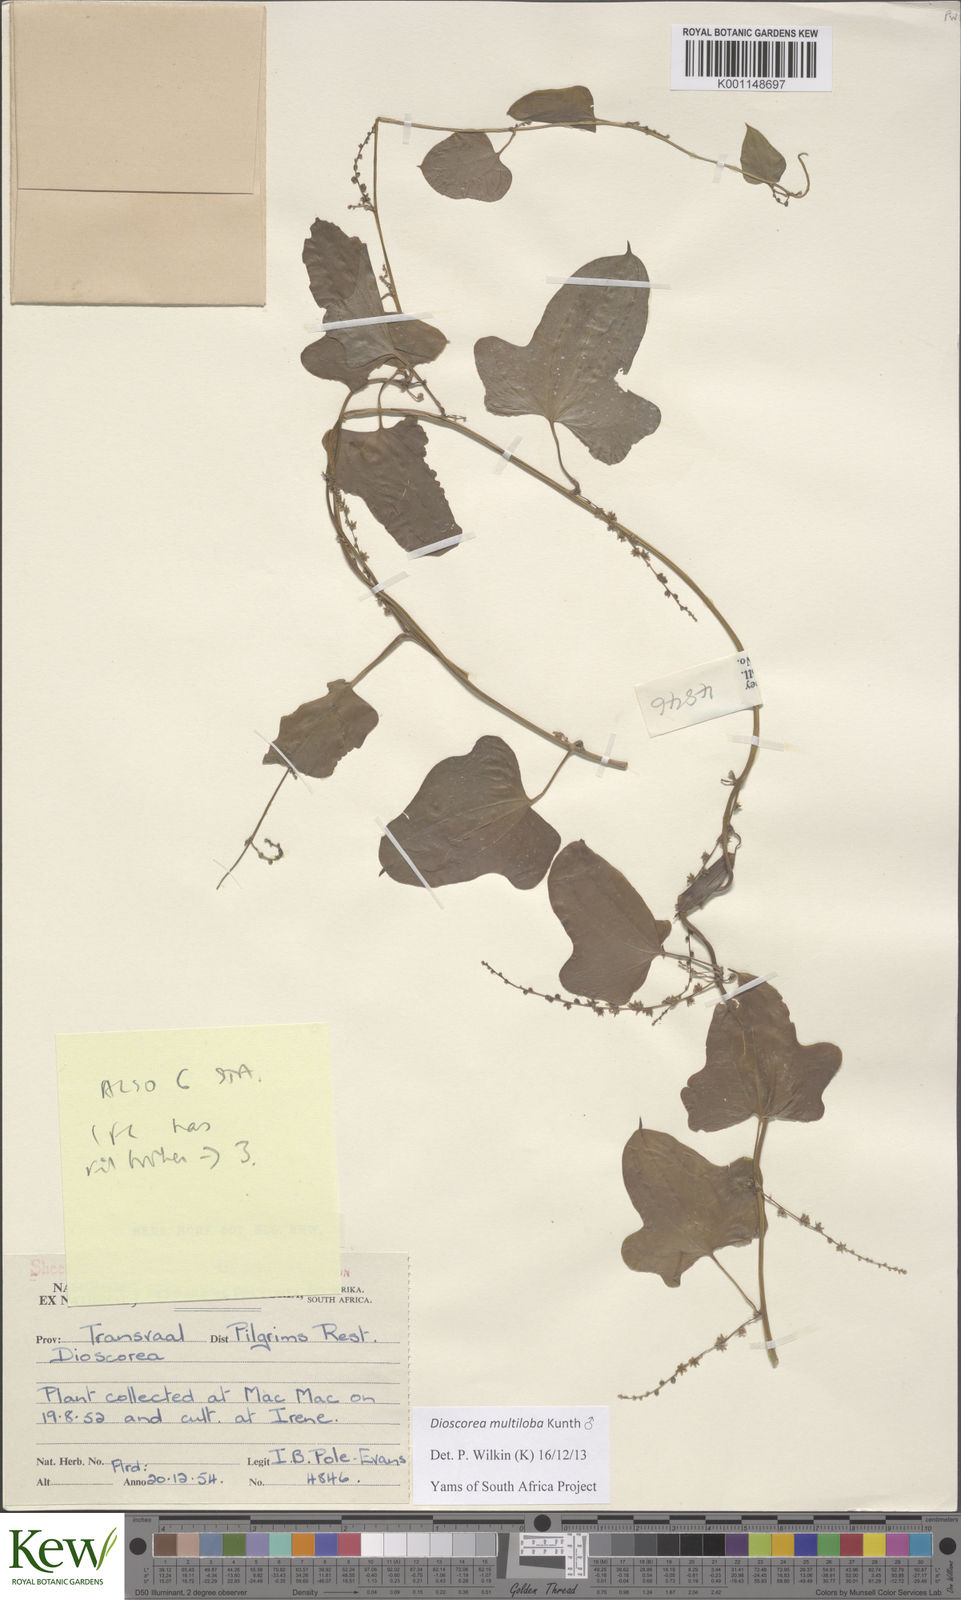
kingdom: Plantae
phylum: Tracheophyta
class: Liliopsida
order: Dioscoreales
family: Dioscoreaceae
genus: Dioscorea
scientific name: Dioscorea
